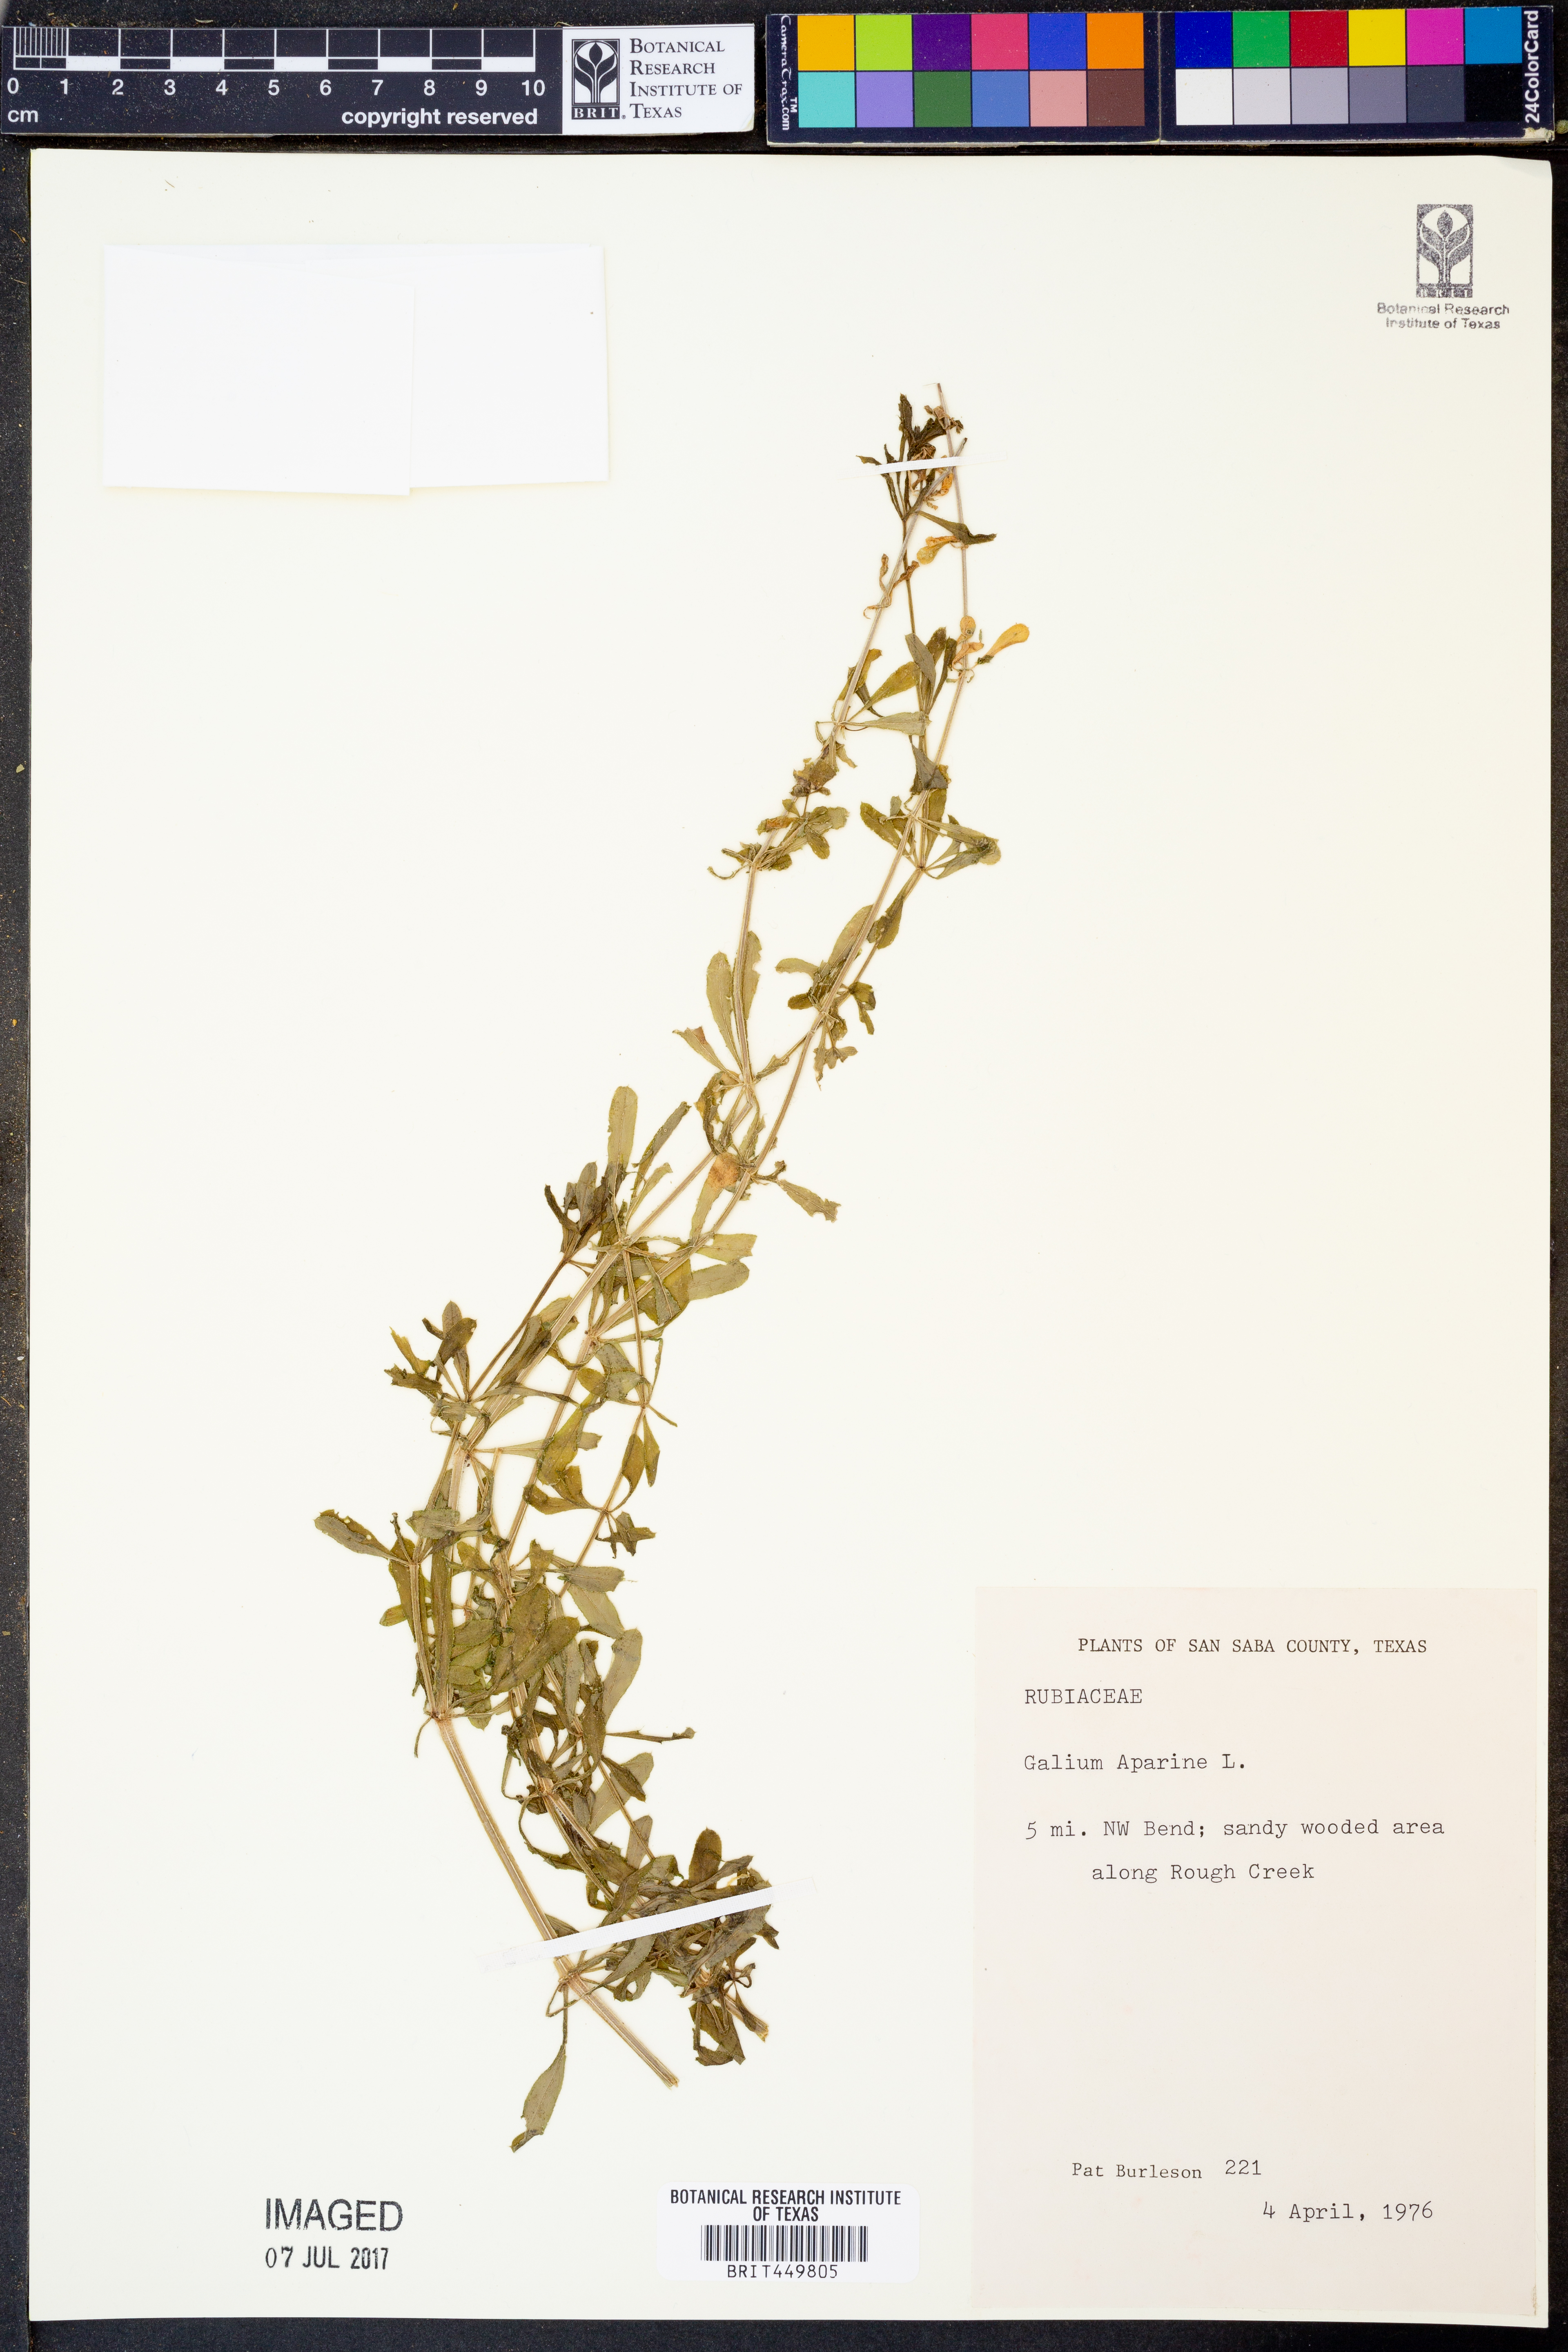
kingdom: Plantae
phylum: Tracheophyta
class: Magnoliopsida
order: Gentianales
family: Rubiaceae
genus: Galium
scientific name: Galium aparine
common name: Cleavers
